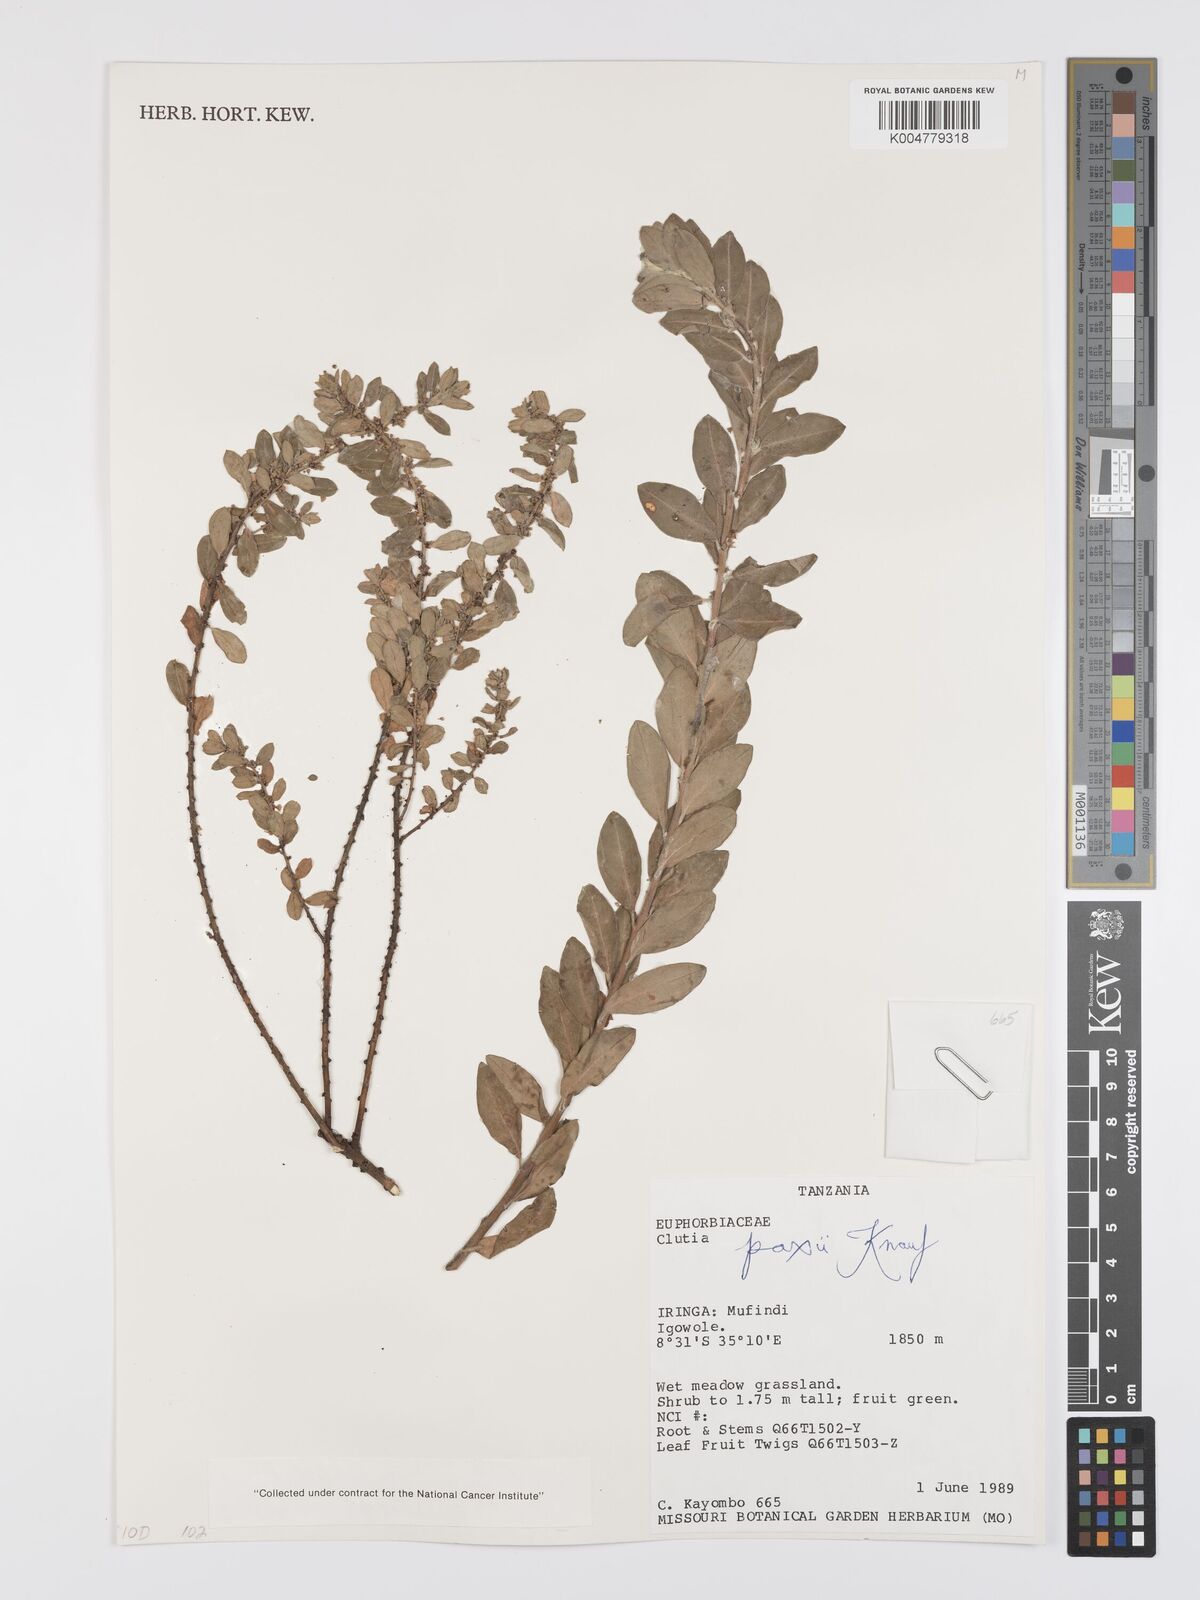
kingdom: Plantae
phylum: Tracheophyta
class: Magnoliopsida
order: Malpighiales
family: Peraceae
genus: Clutia
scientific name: Clutia paxii
